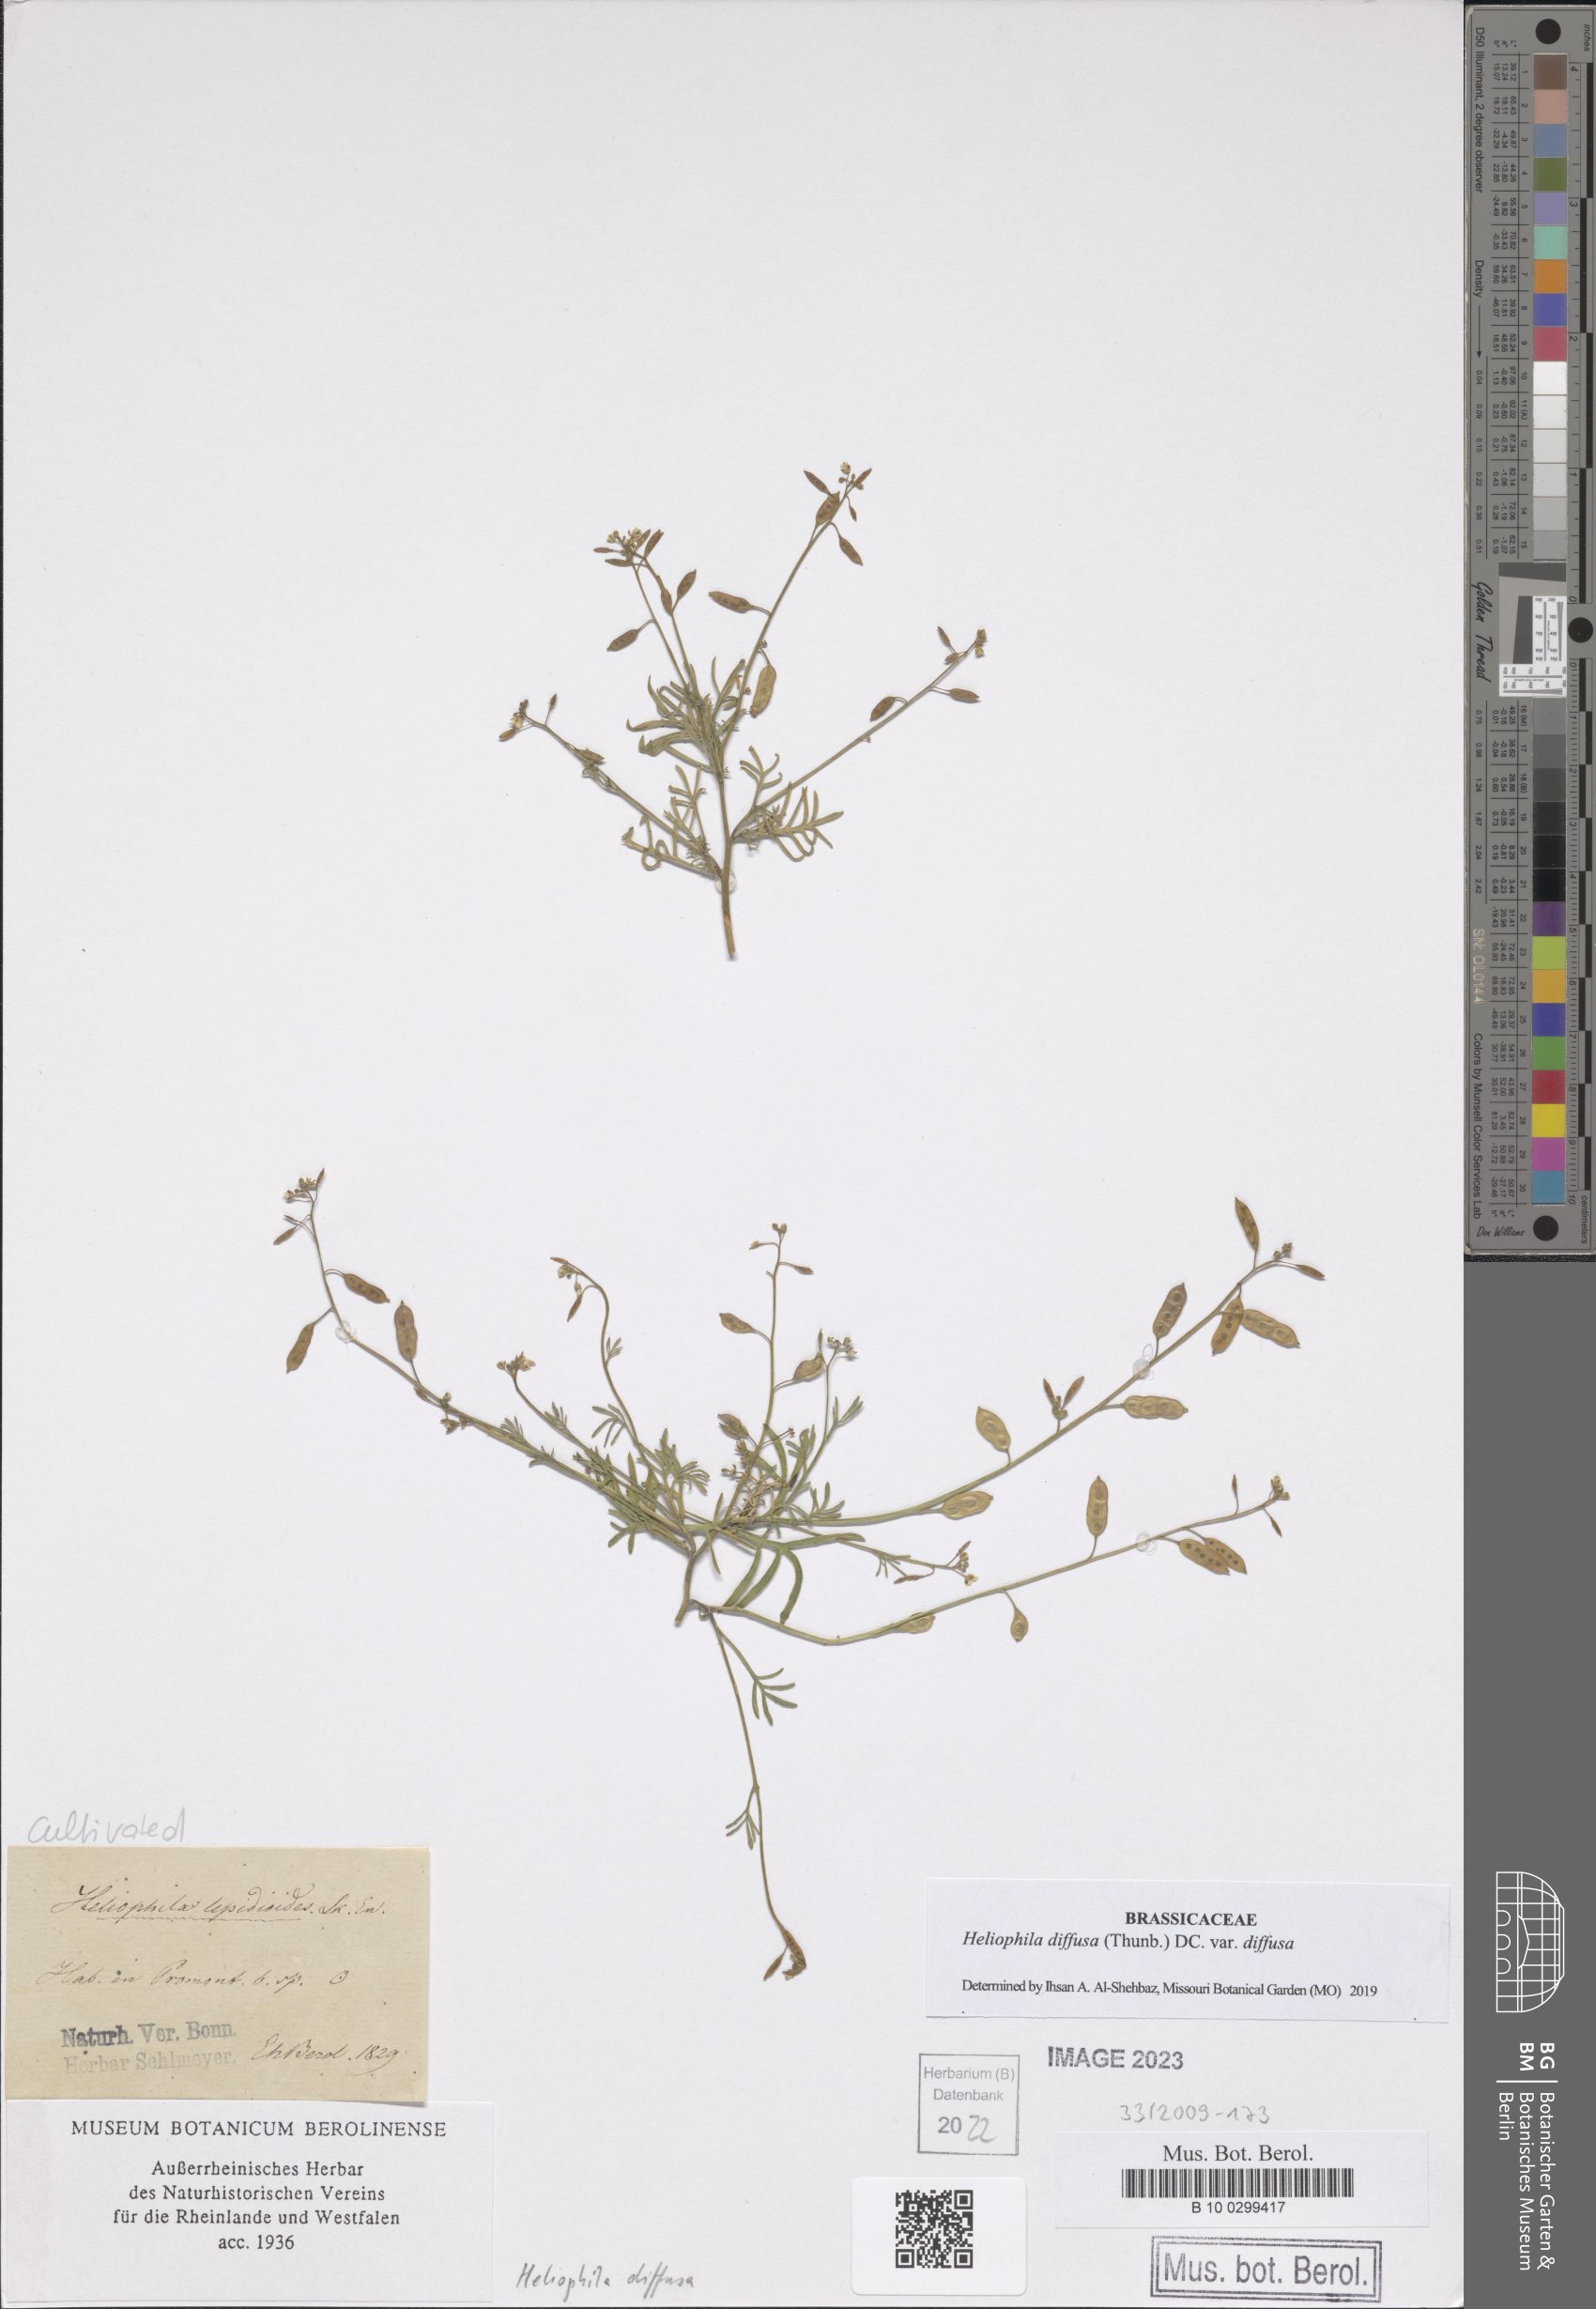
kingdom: Plantae
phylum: Tracheophyta
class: Magnoliopsida
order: Brassicales
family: Brassicaceae
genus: Heliophila
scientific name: Heliophila diffusa
